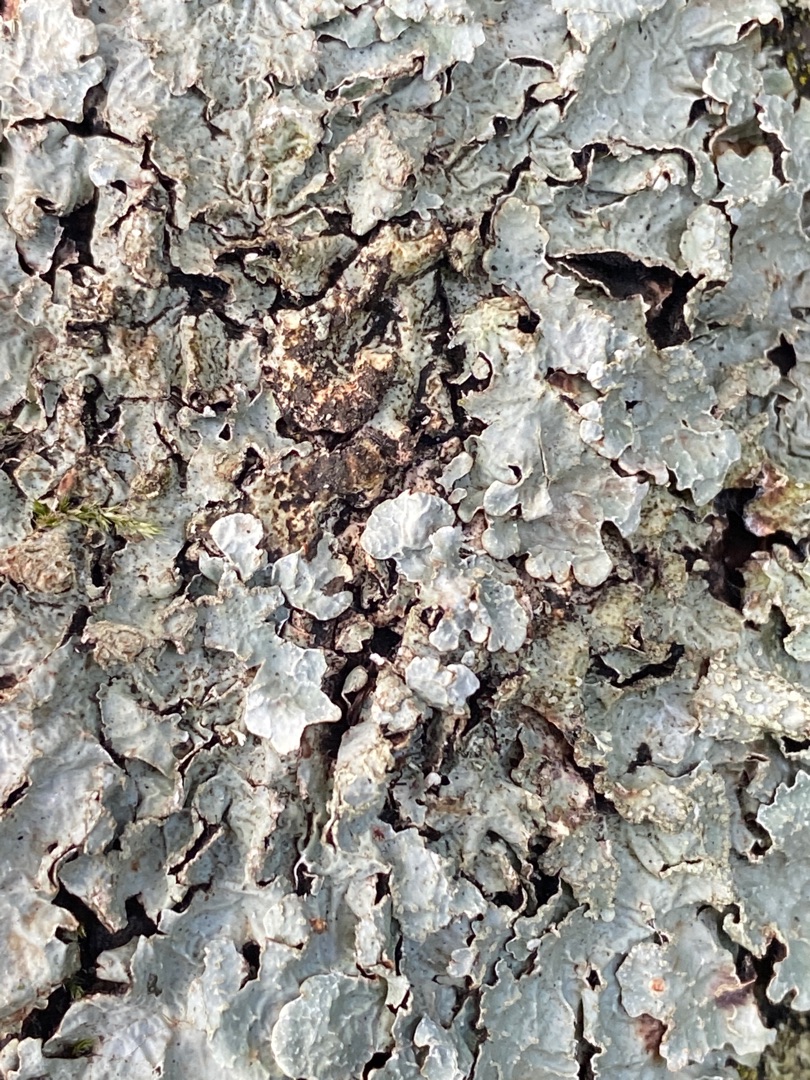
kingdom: Fungi
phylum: Ascomycota
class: Lecanoromycetes
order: Lecanorales
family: Parmeliaceae
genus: Parmelia
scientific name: Parmelia sulcata
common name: Rynket skållav
